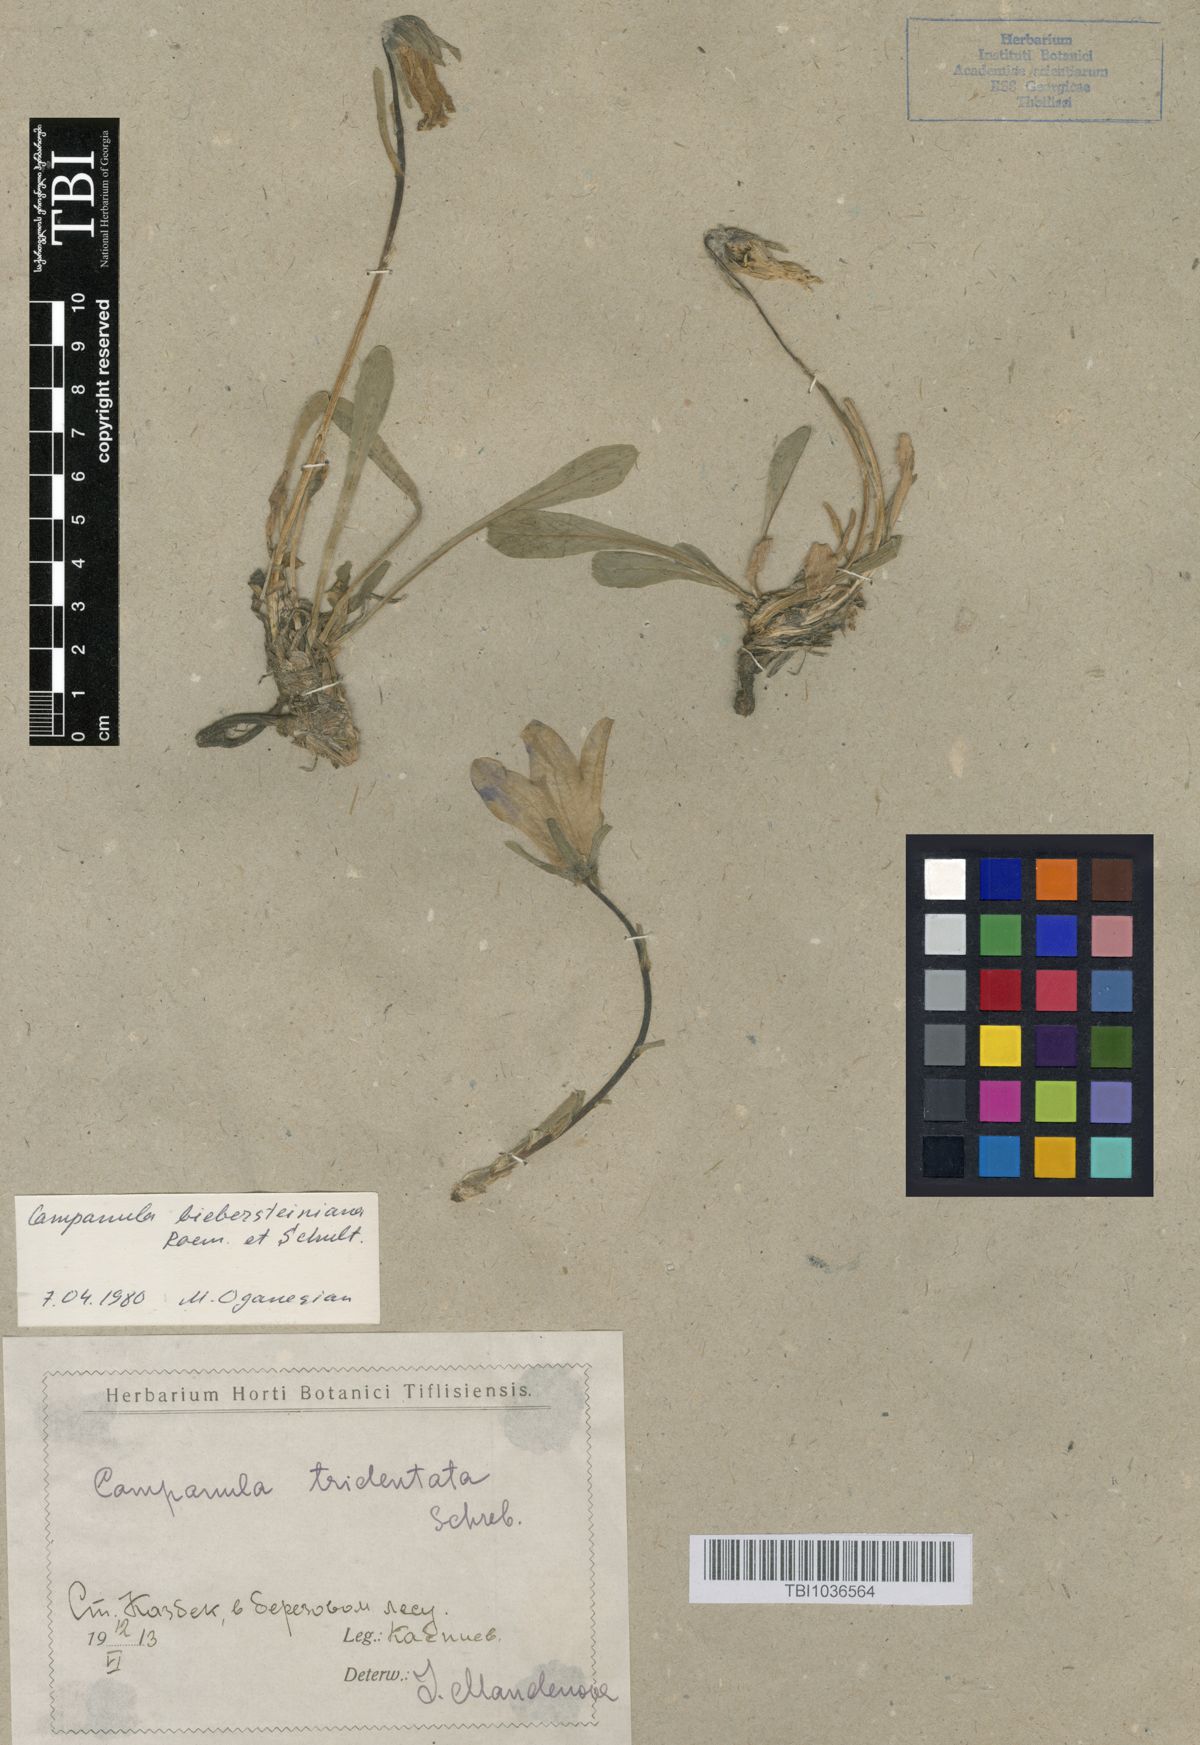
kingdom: Plantae
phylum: Tracheophyta
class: Magnoliopsida
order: Asterales
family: Campanulaceae
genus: Campanula
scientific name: Campanula tridentata
